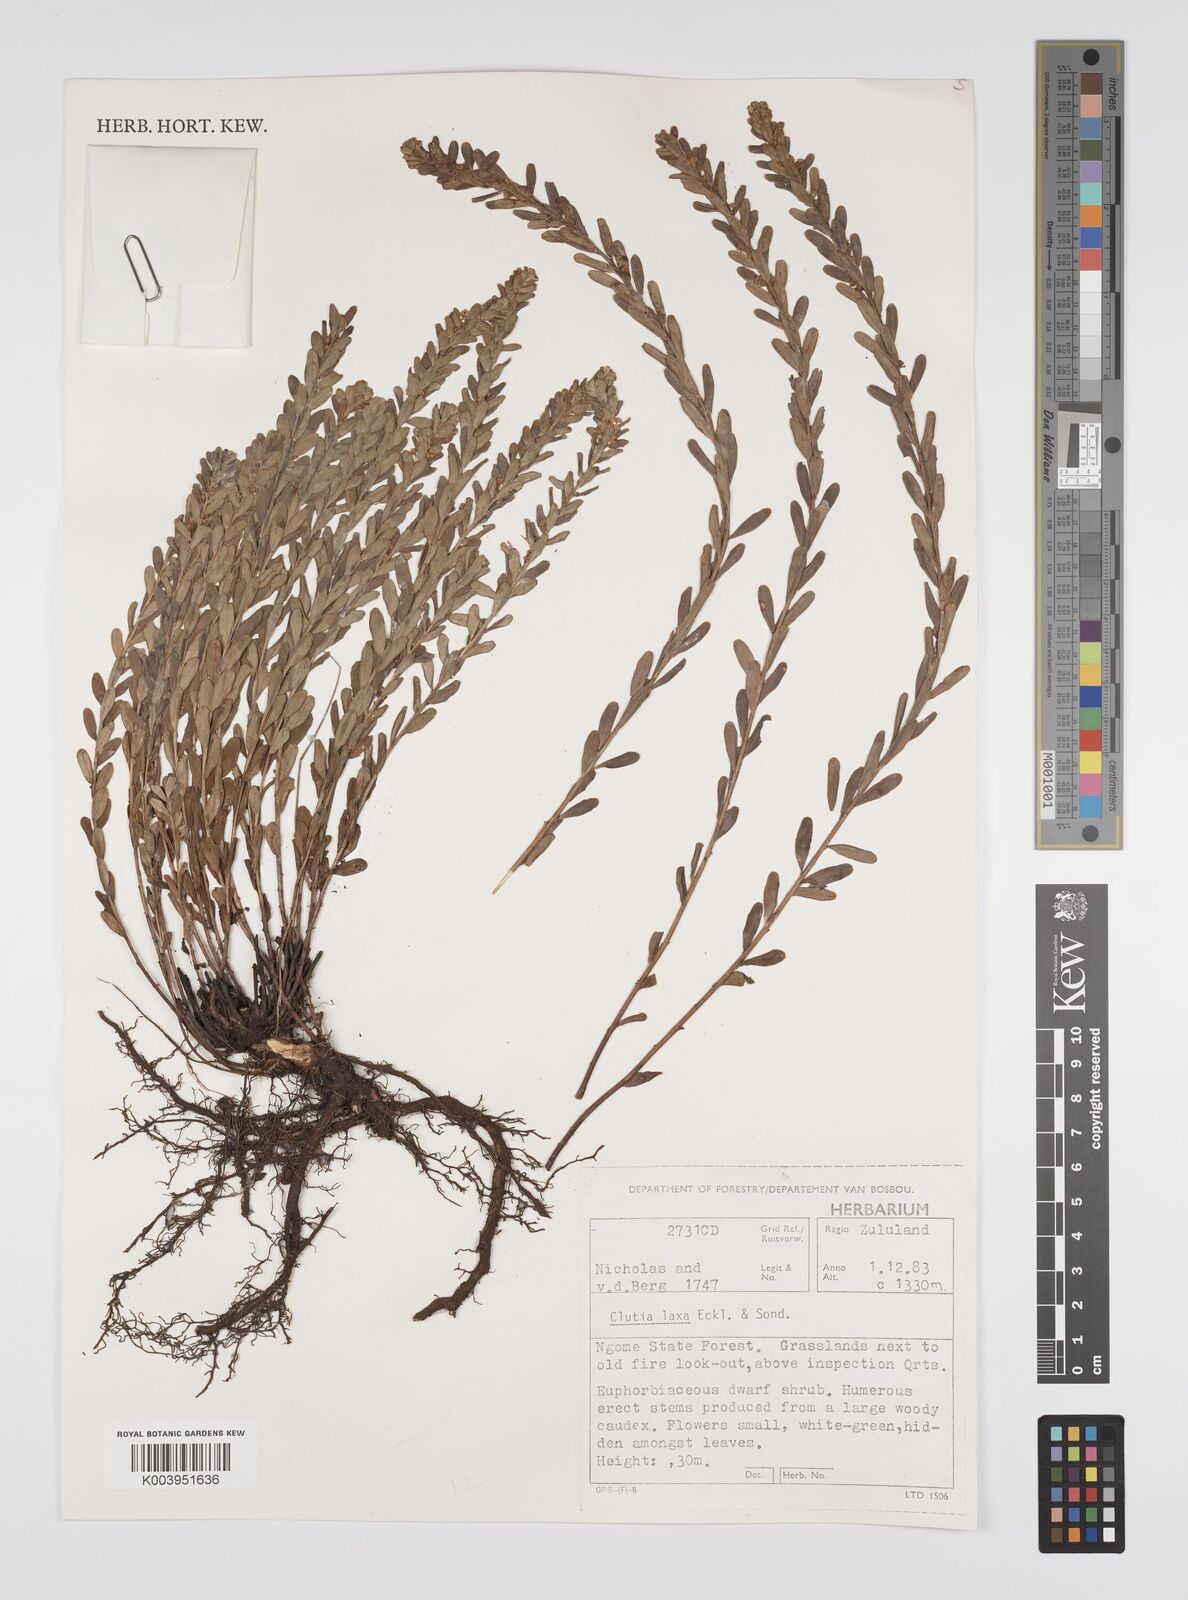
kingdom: Plantae
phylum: Tracheophyta
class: Magnoliopsida
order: Malpighiales
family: Peraceae
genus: Clutia
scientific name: Clutia laxa
